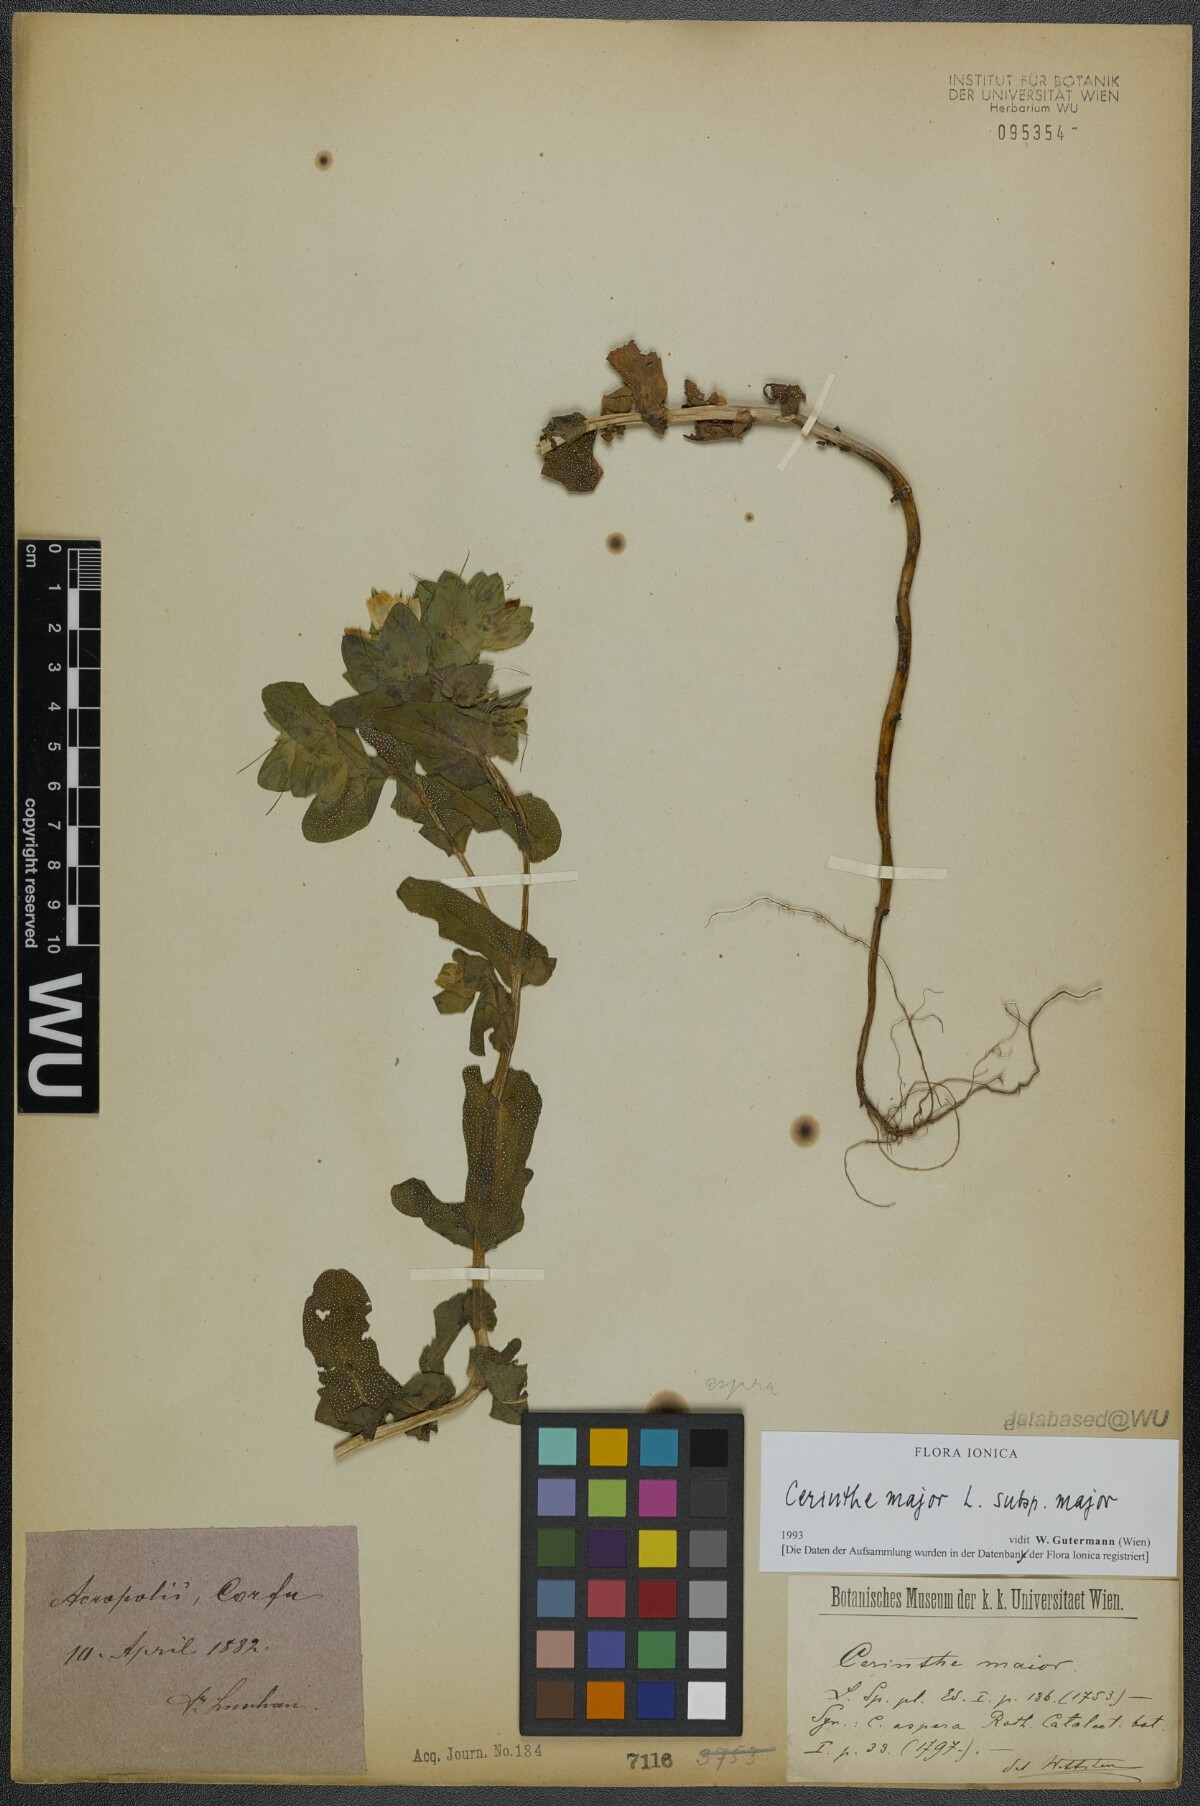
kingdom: Plantae
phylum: Tracheophyta
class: Magnoliopsida
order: Boraginales
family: Boraginaceae
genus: Cerinthe
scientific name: Cerinthe major
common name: Greater honeywort
